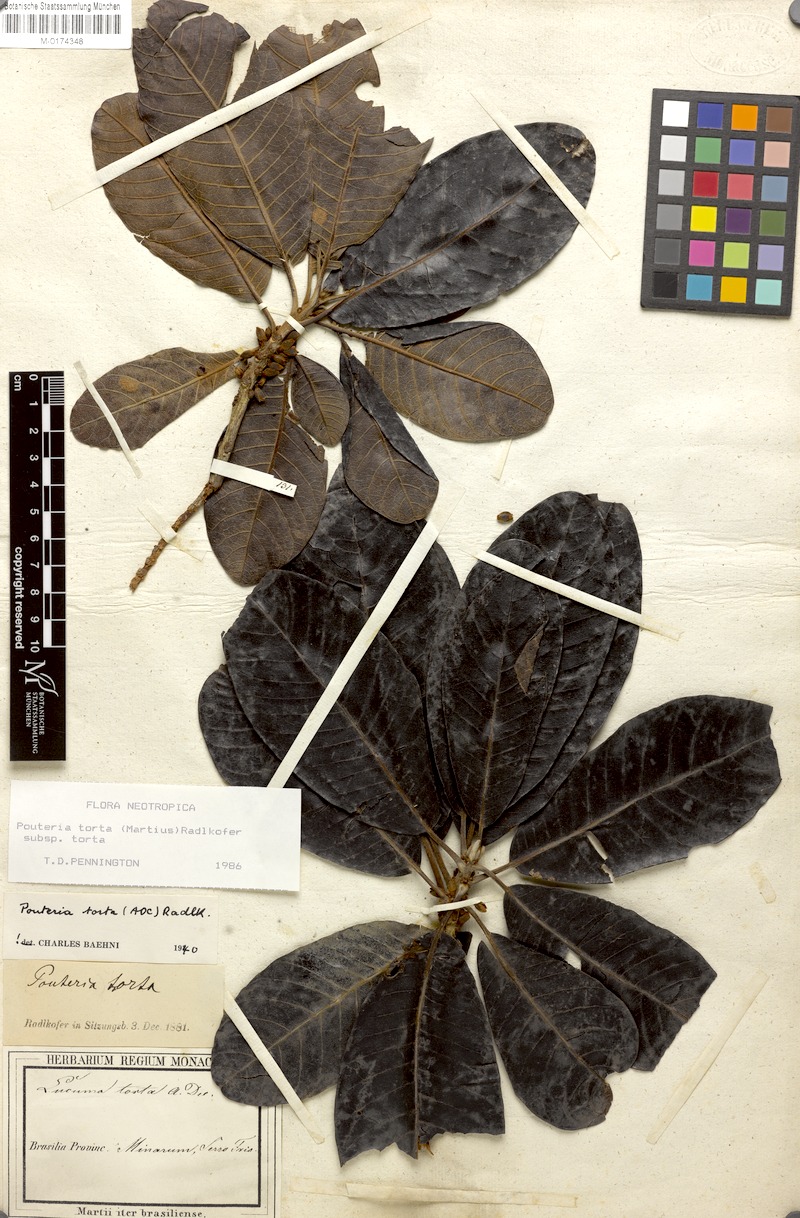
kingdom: Plantae
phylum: Tracheophyta
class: Magnoliopsida
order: Ericales
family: Sapotaceae
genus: Pouteria
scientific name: Pouteria torta
